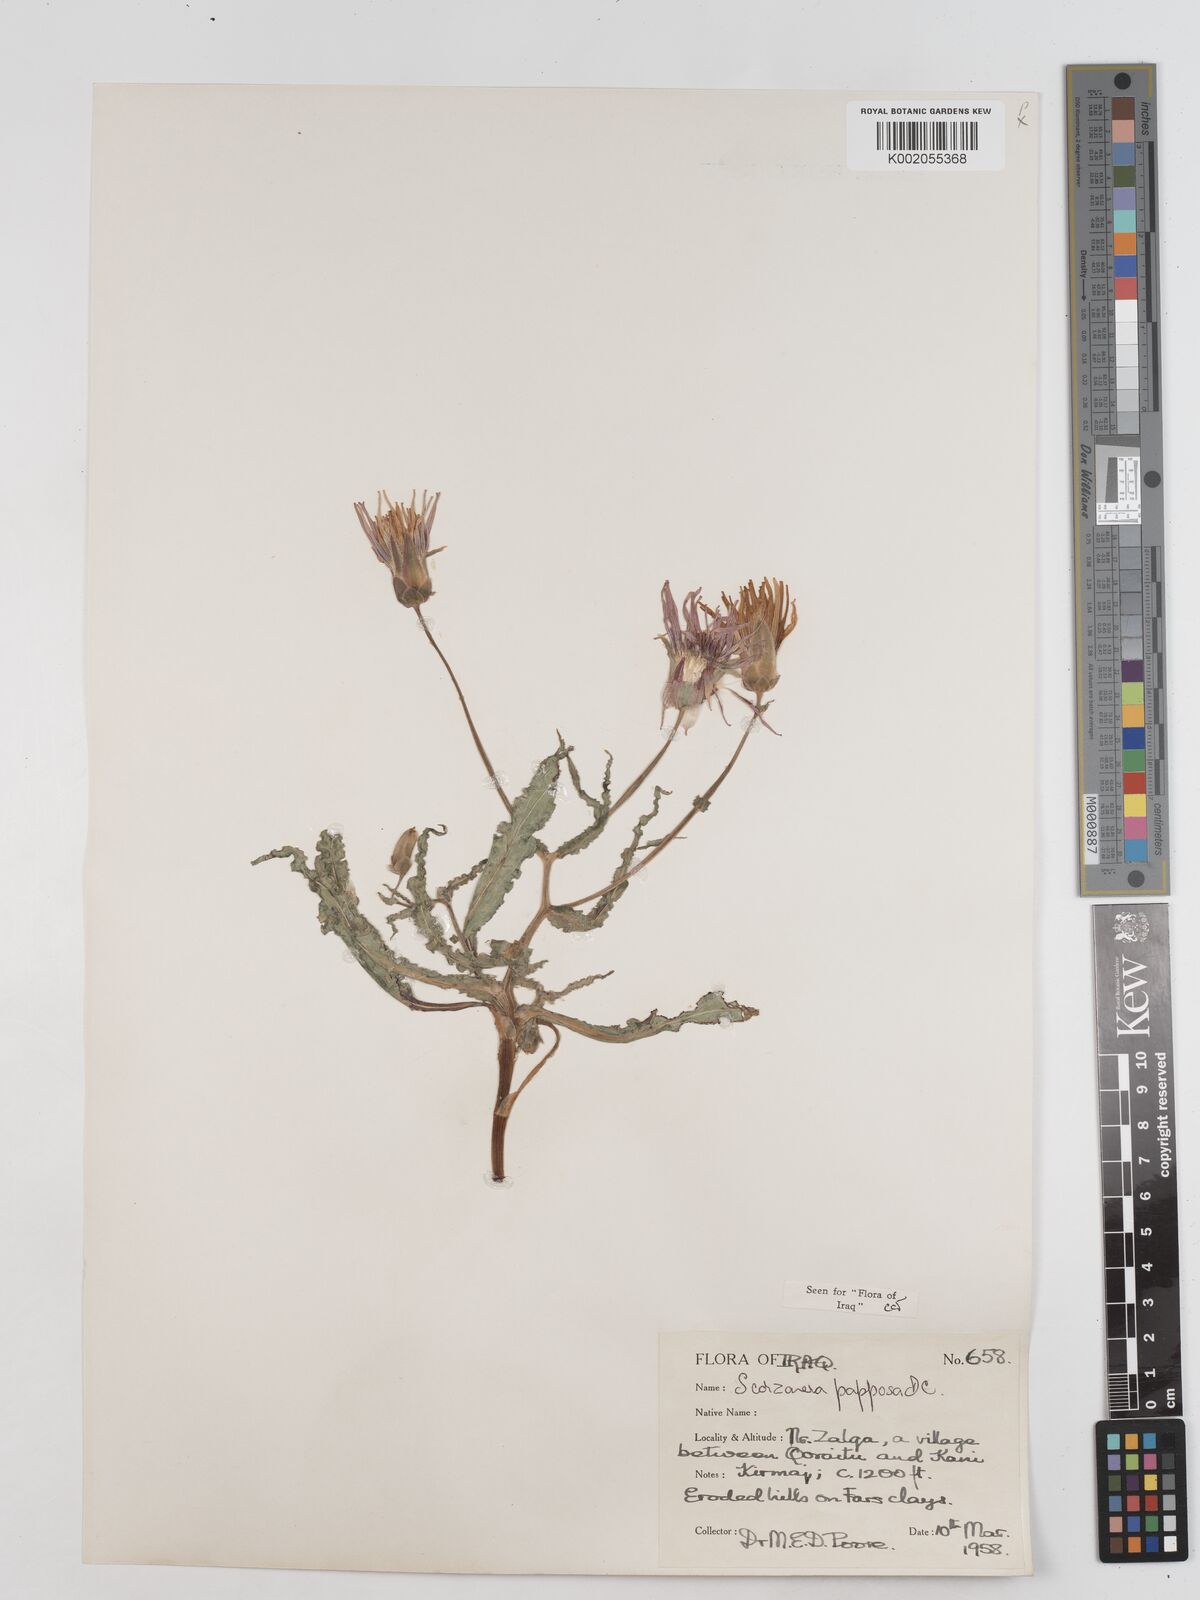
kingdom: Plantae
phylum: Tracheophyta
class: Magnoliopsida
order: Asterales
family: Asteraceae
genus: Pseudopodospermum
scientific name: Pseudopodospermum papposum
